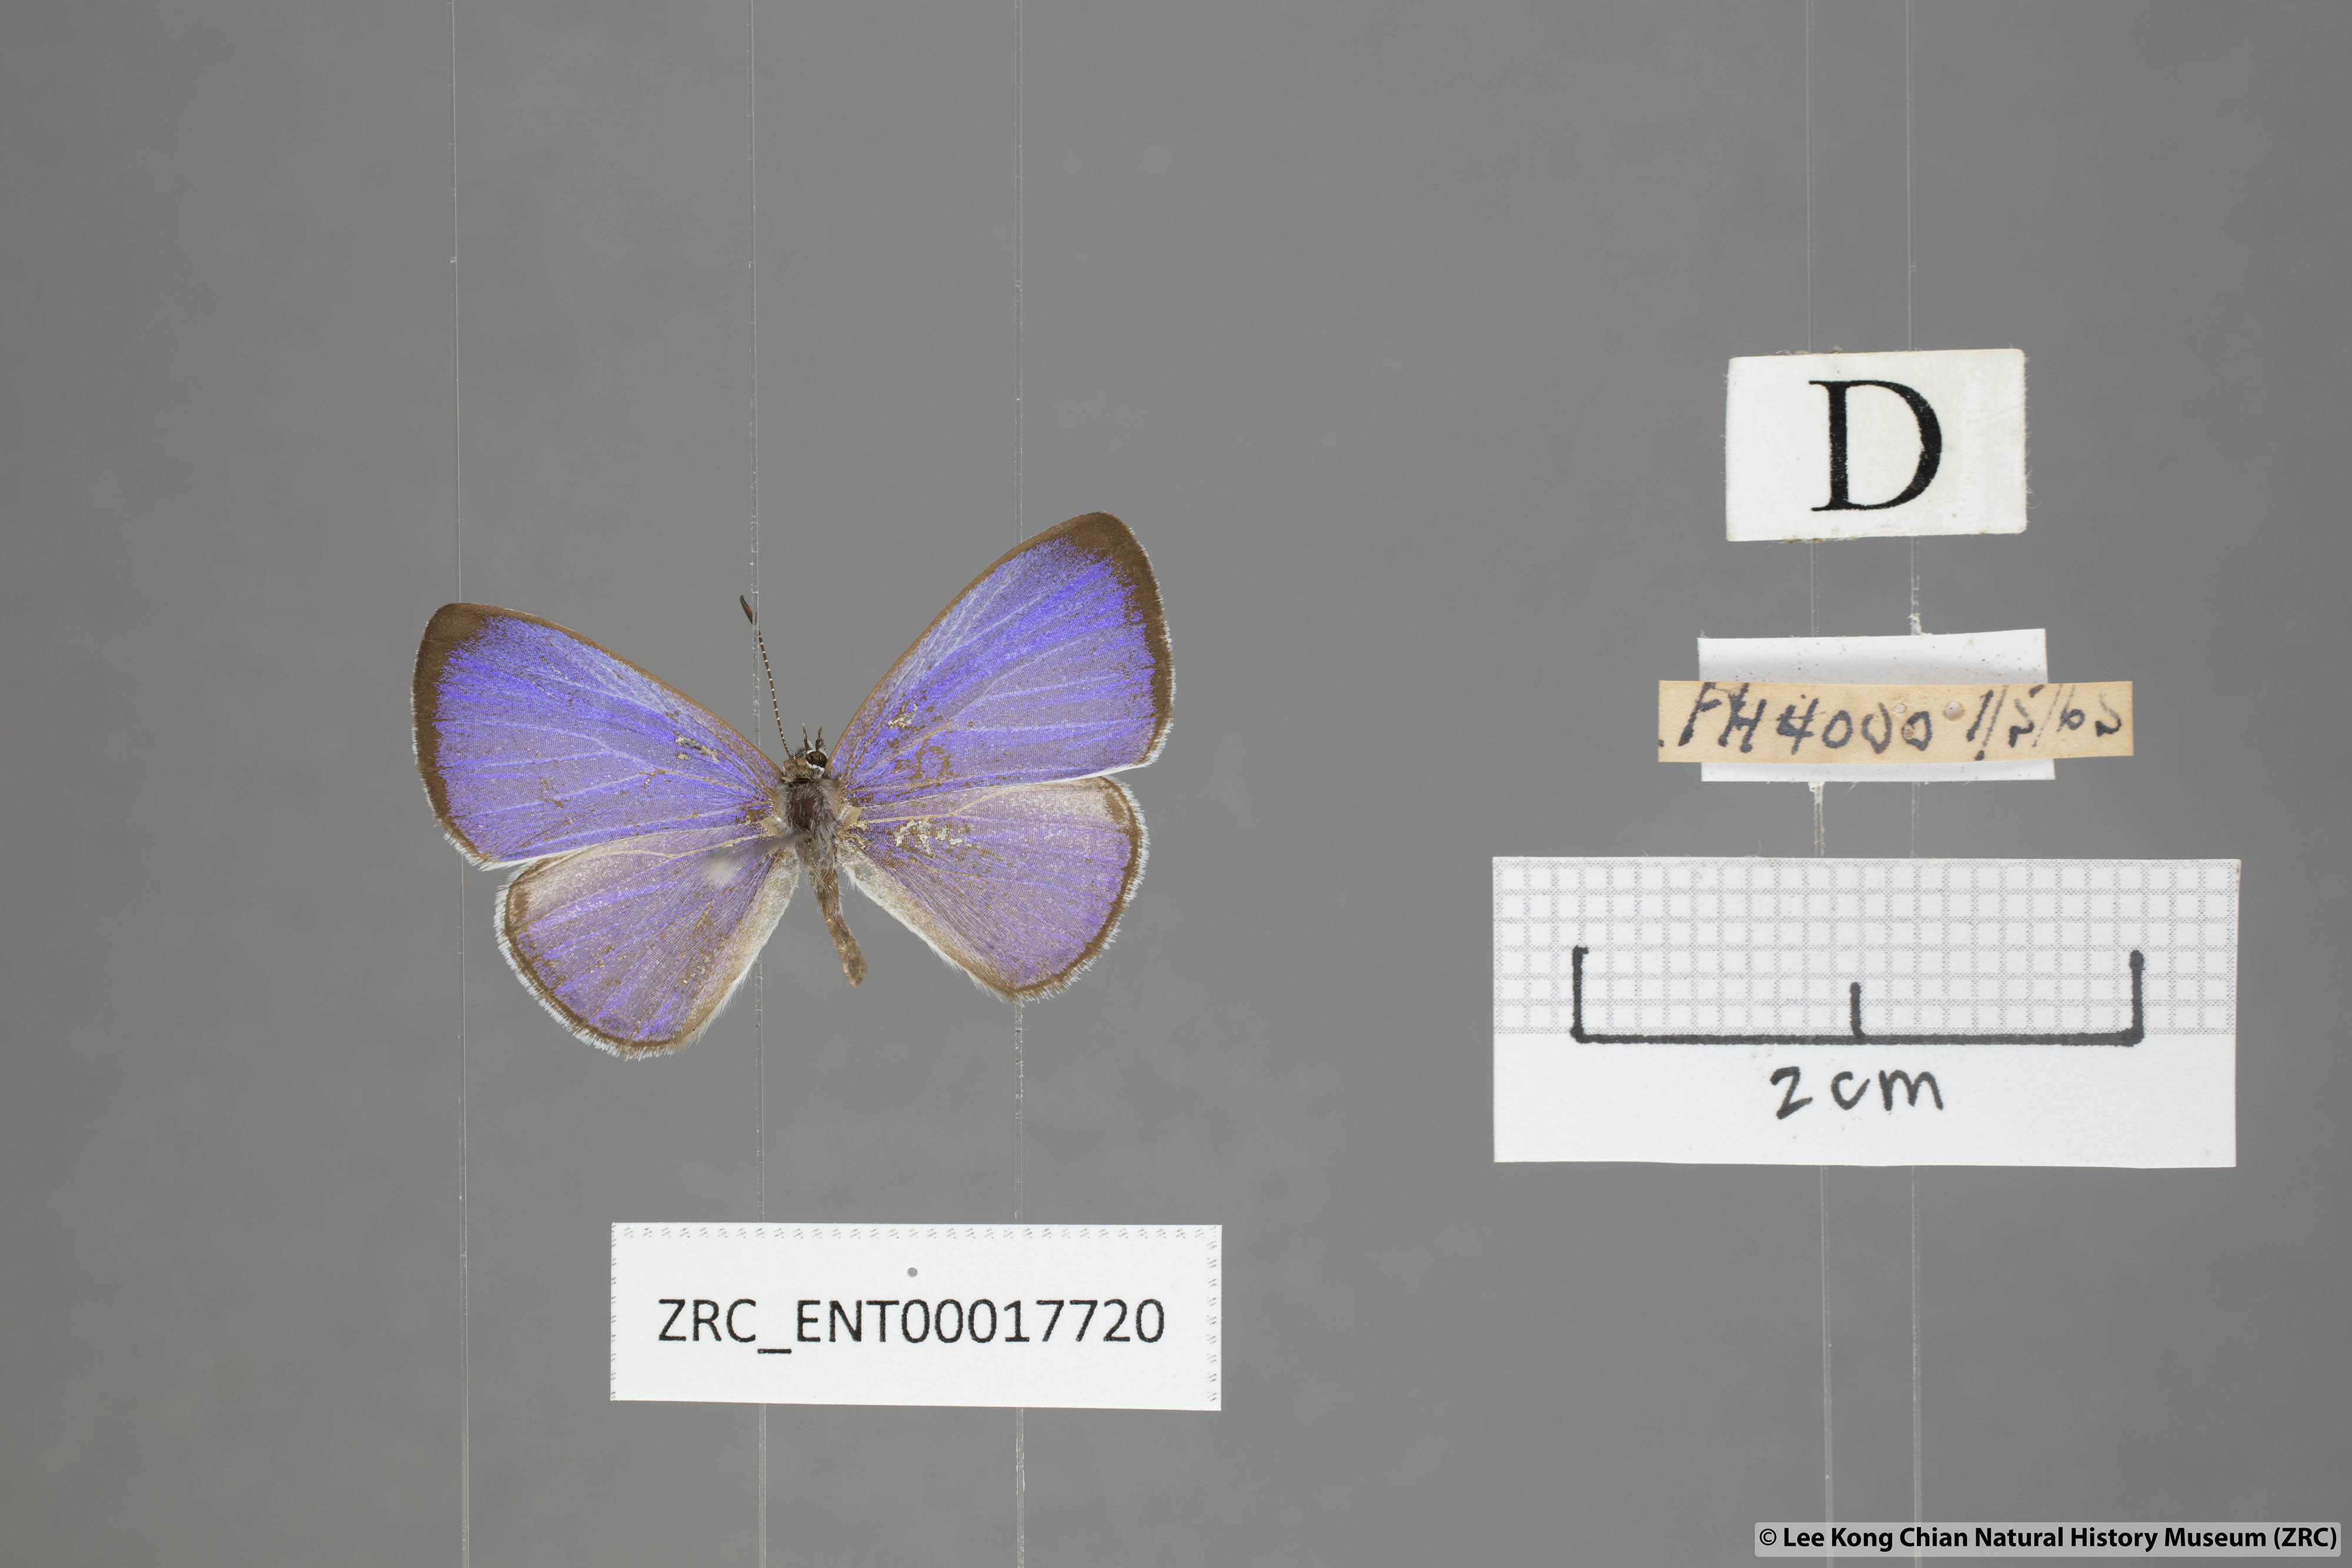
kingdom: Animalia
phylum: Arthropoda
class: Insecta
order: Lepidoptera
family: Lycaenidae
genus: Udara
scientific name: Udara
